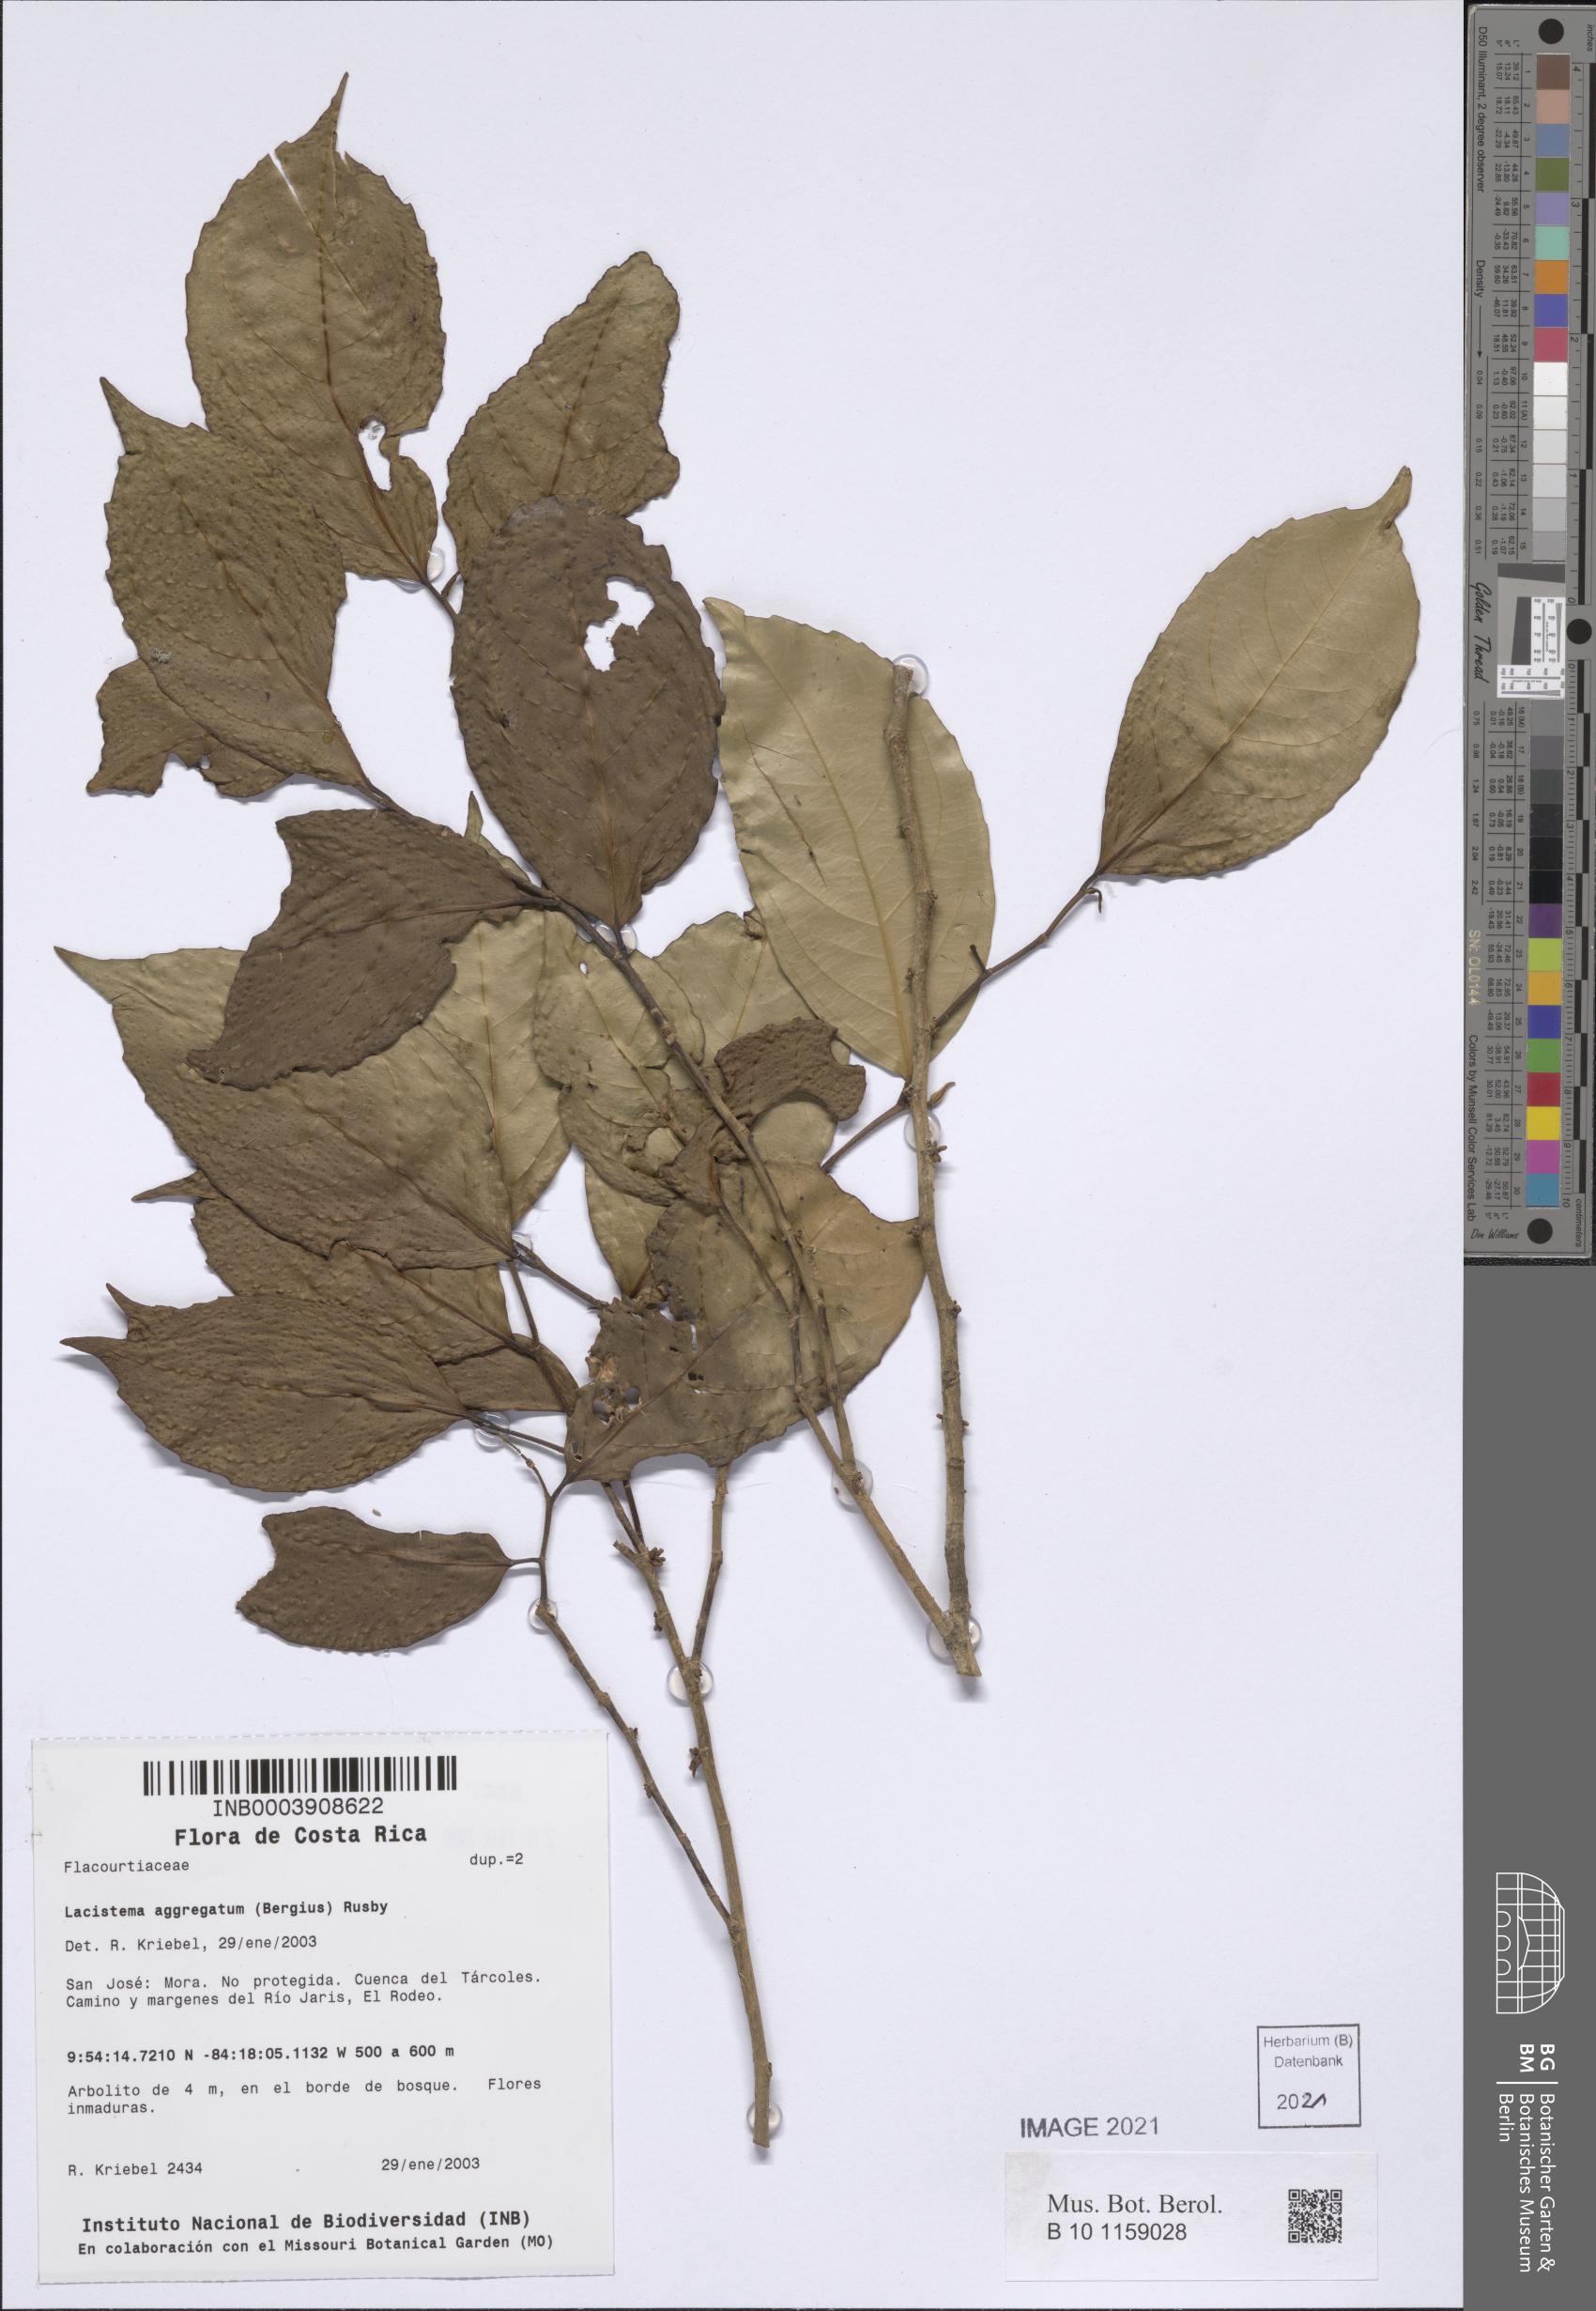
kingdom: Plantae
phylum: Tracheophyta
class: Magnoliopsida
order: Malpighiales
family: Lacistemataceae
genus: Lacistema
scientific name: Lacistema aggregatum
